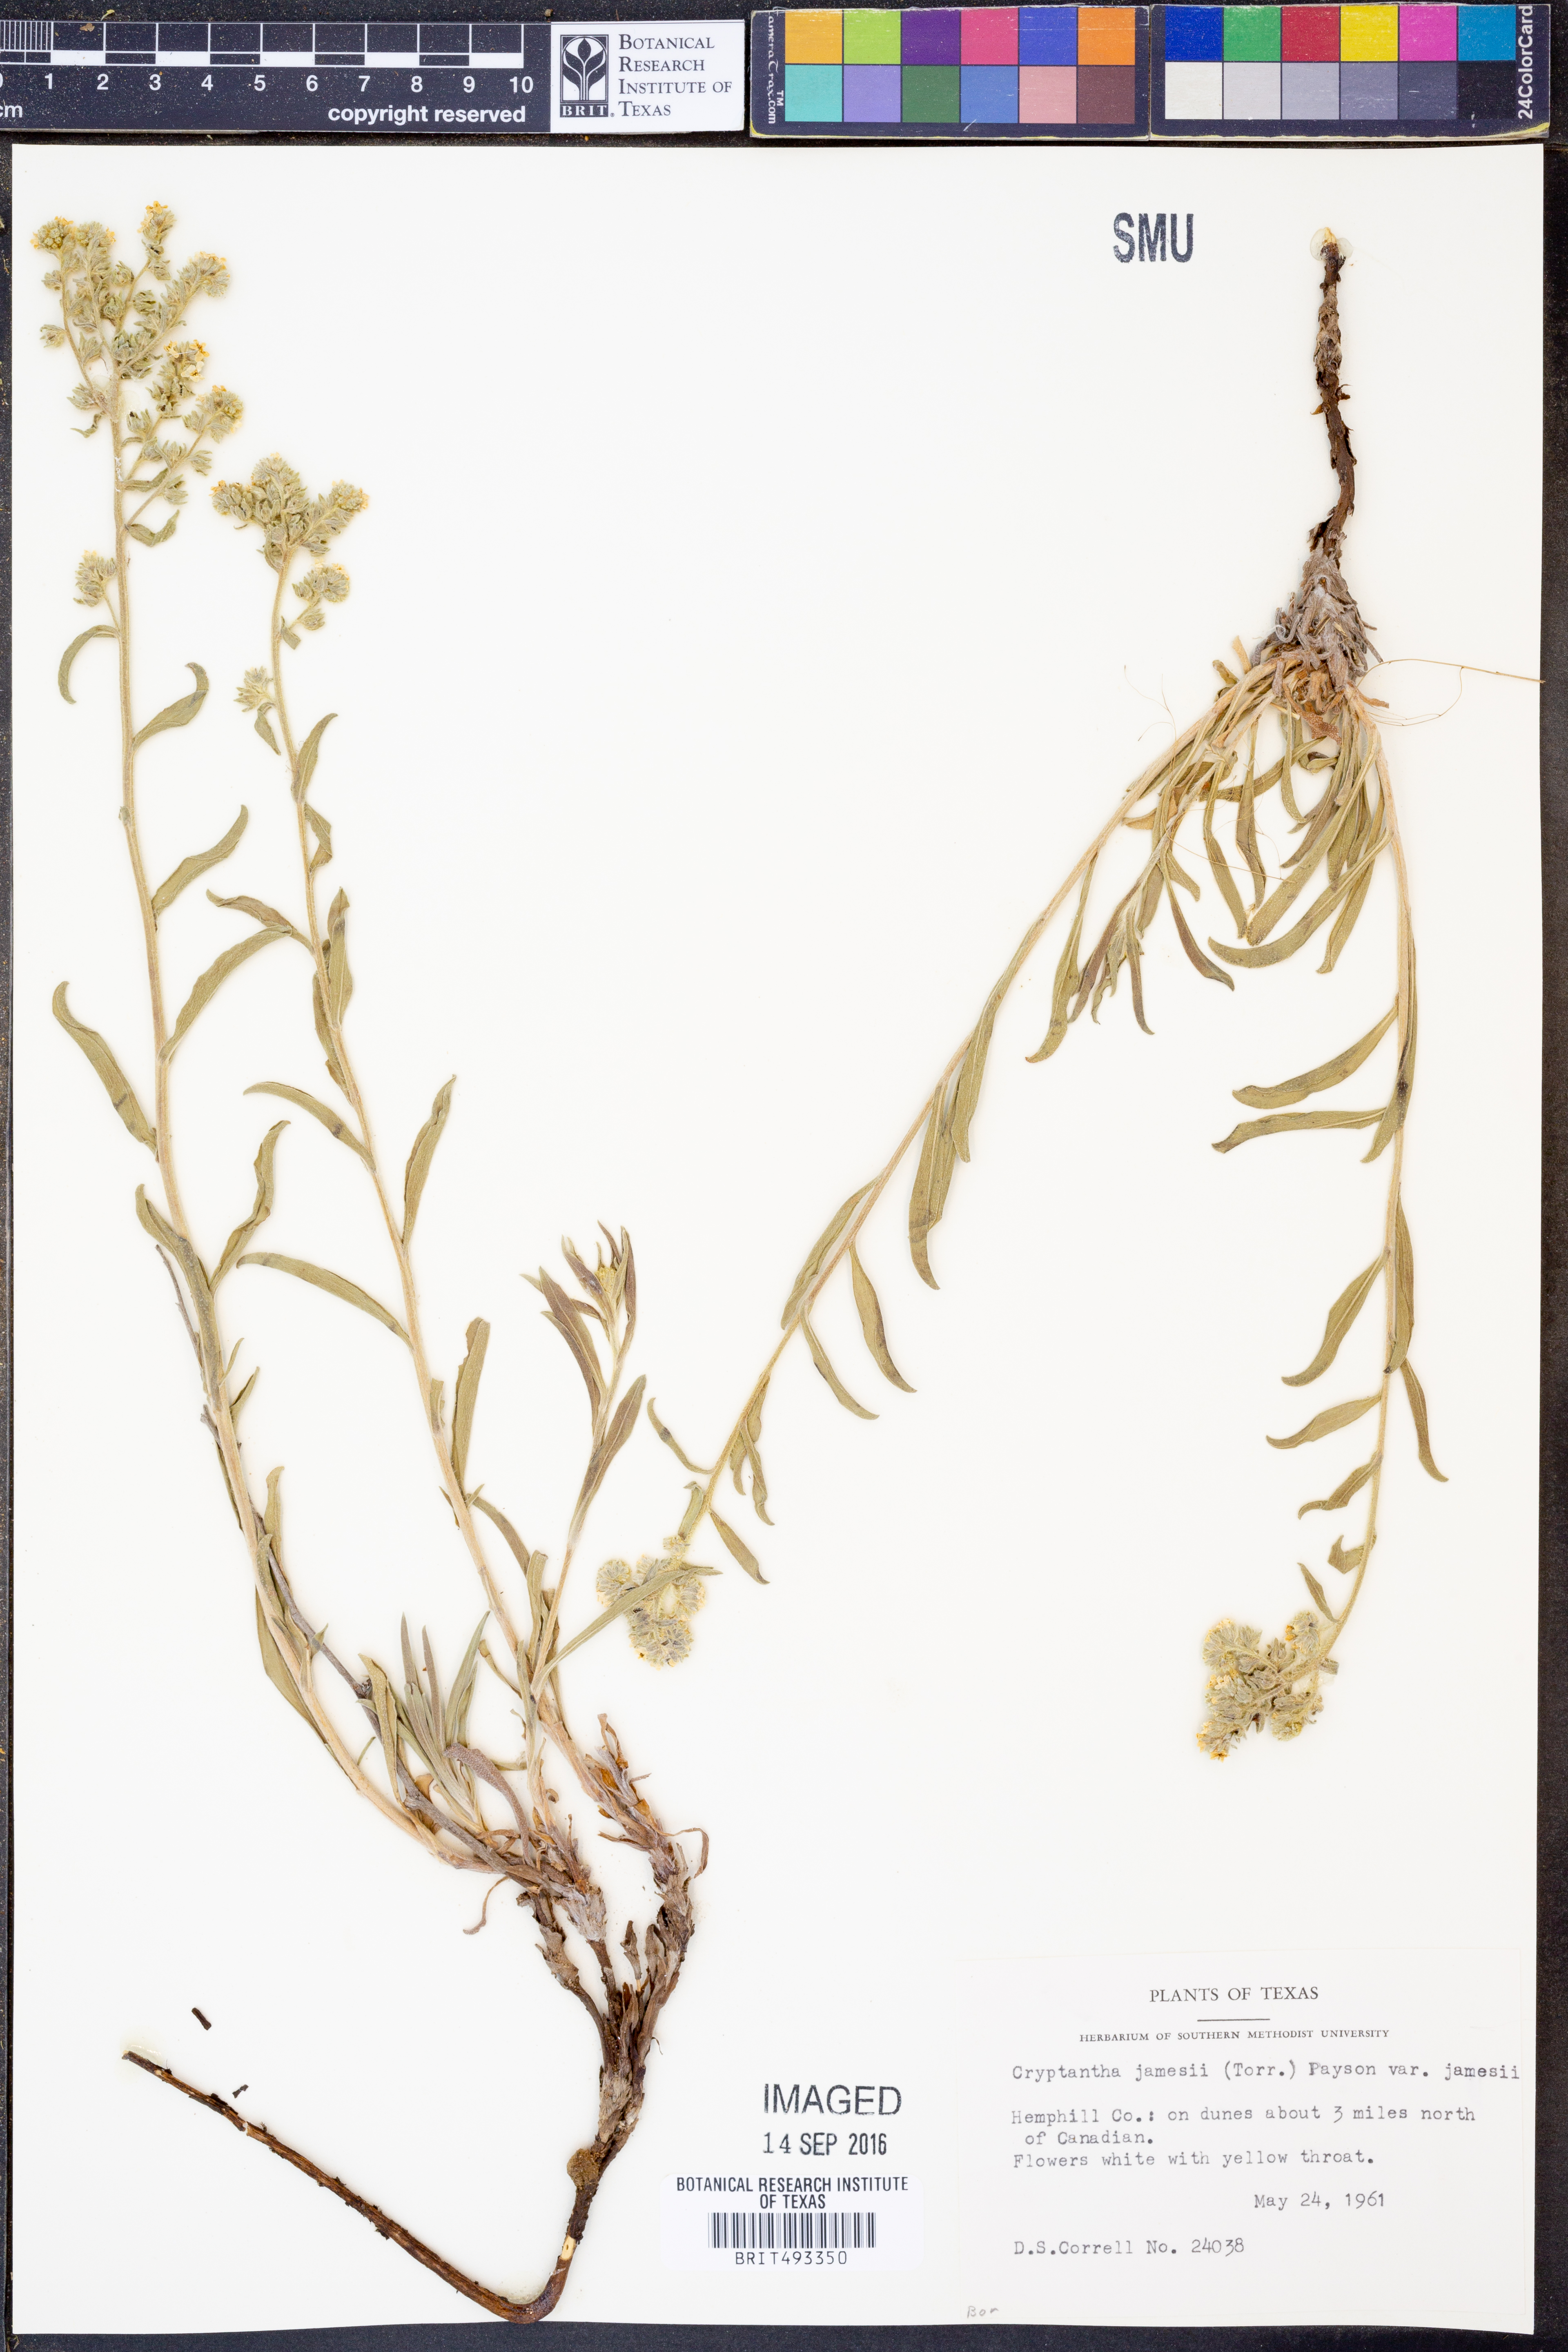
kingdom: Plantae
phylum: Tracheophyta
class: Magnoliopsida
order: Boraginales
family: Boraginaceae
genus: Oreocarya
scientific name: Oreocarya suffruticosa
